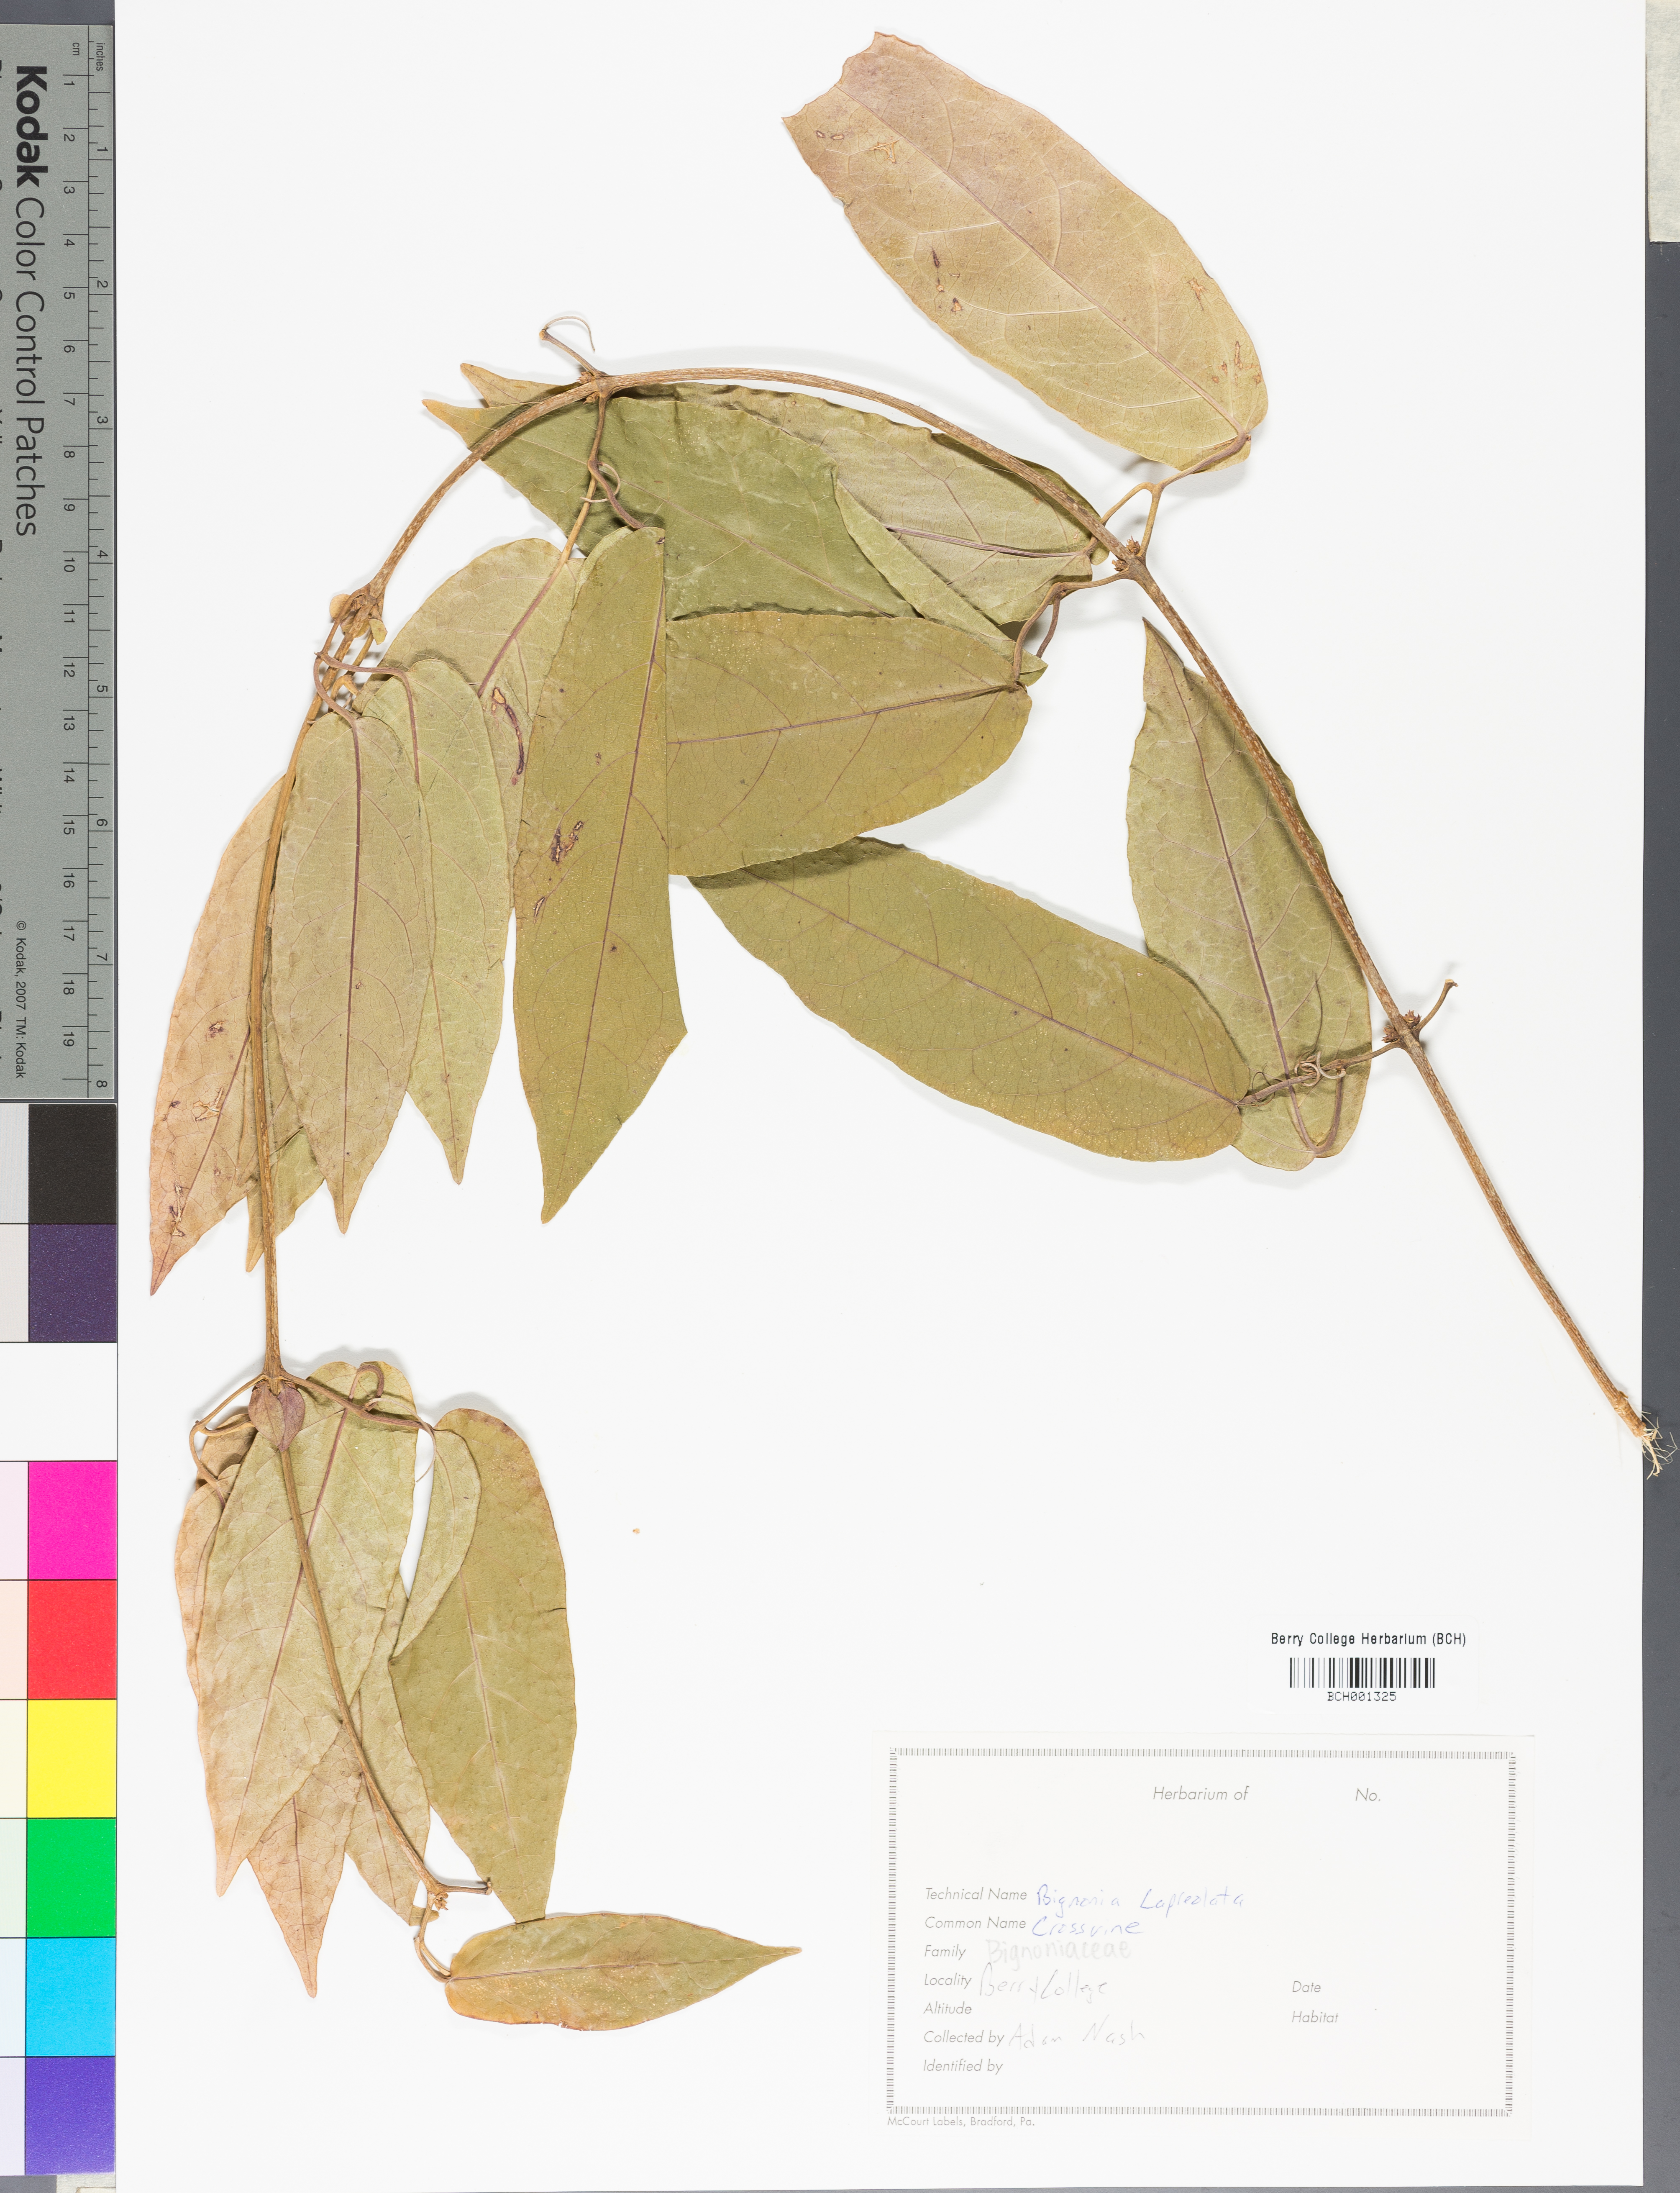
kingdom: Plantae
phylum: Tracheophyta
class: Magnoliopsida
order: Lamiales
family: Bignoniaceae
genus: Bignonia
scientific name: Bignonia capreolata
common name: Crossvine
